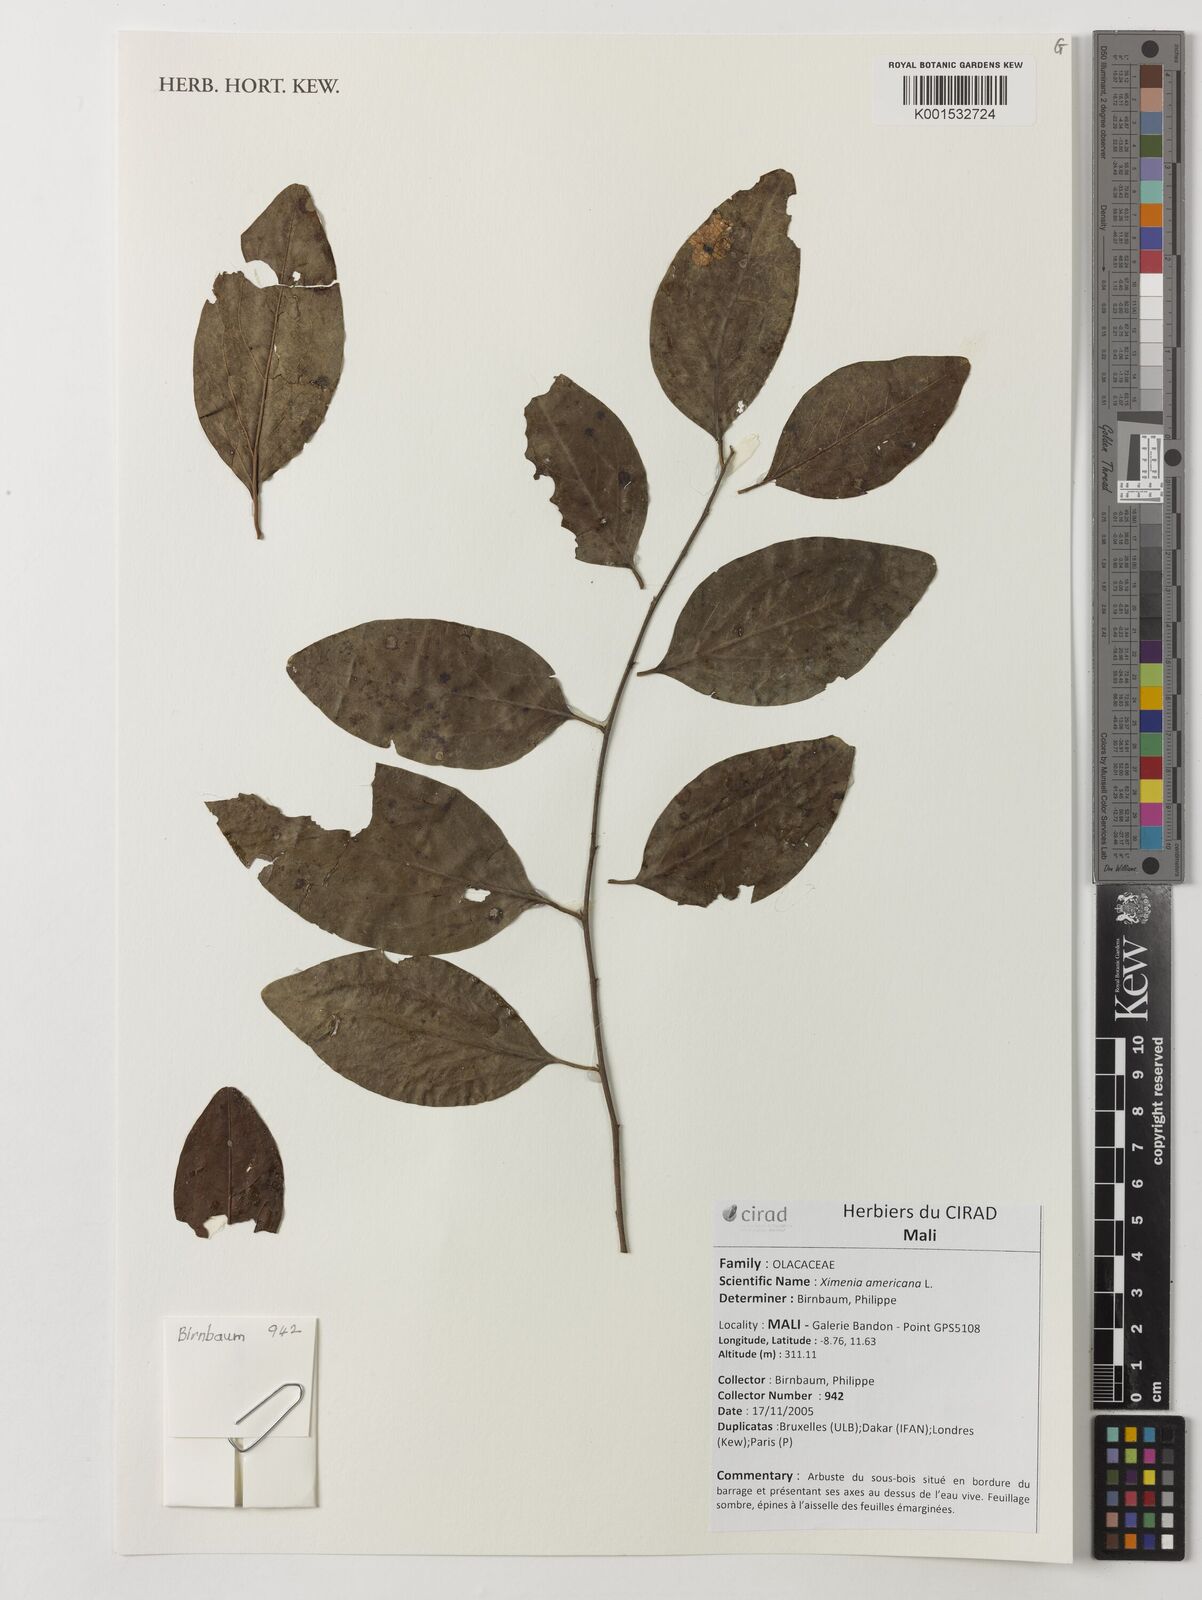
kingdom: Plantae
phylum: Tracheophyta
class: Magnoliopsida
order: Santalales
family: Ximeniaceae
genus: Ximenia
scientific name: Ximenia americana
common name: Tallowwood
